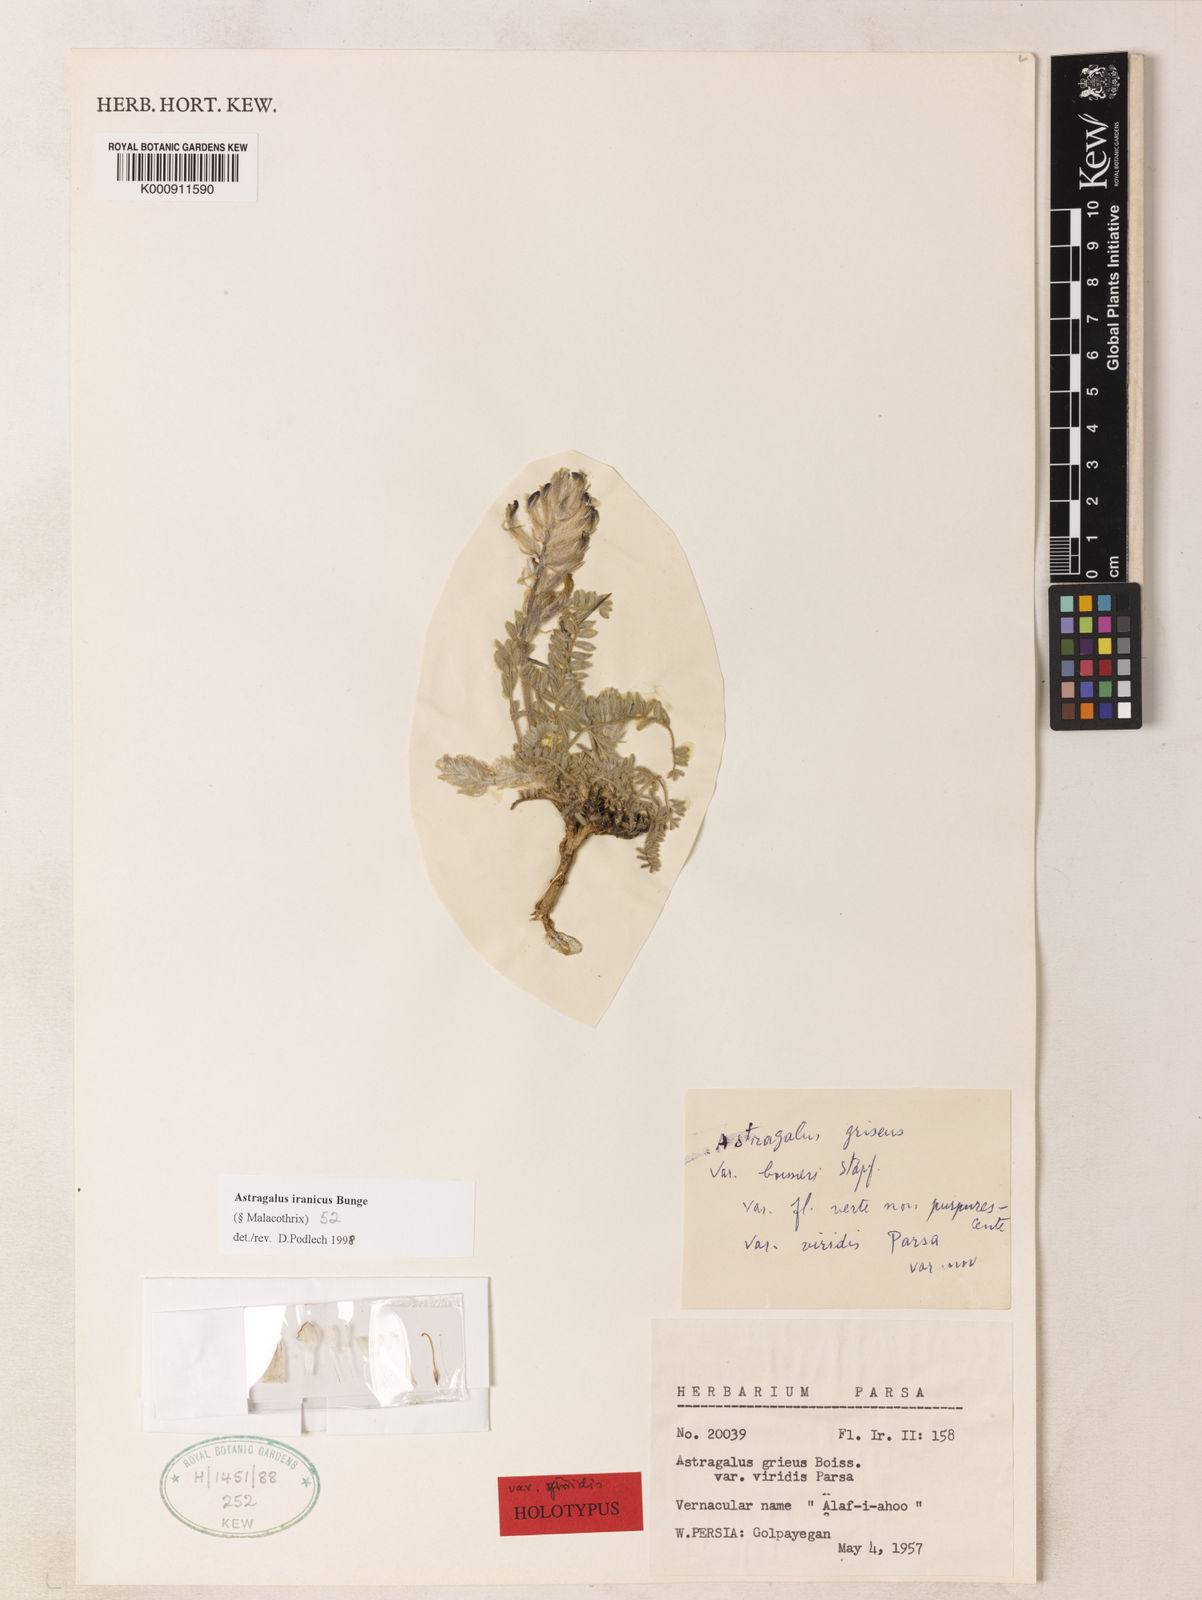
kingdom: Plantae
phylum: Tracheophyta
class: Magnoliopsida
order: Fabales
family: Fabaceae
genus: Astragalus
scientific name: Astragalus iranicus
